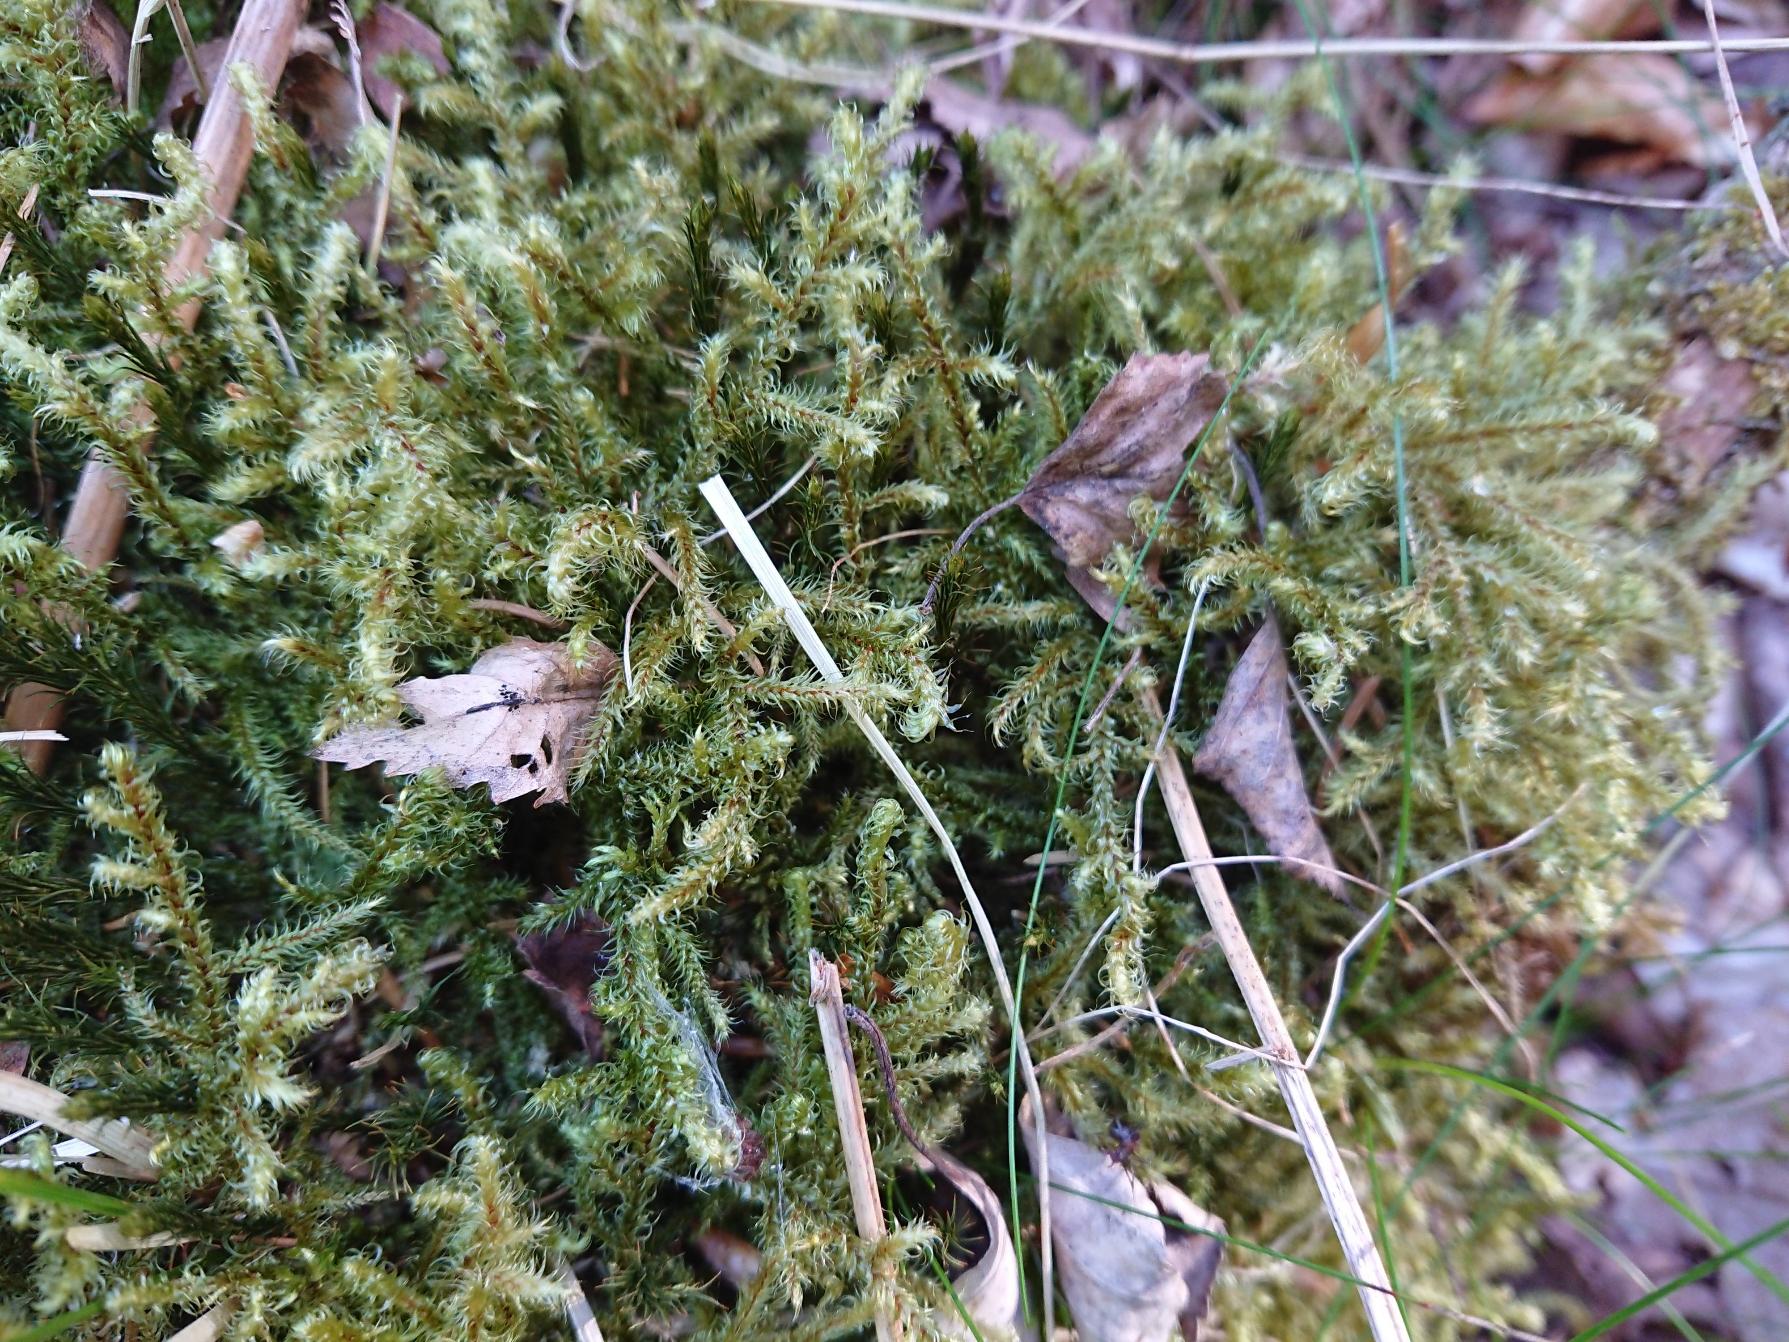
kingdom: Plantae
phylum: Bryophyta
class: Bryopsida
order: Hypnales
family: Hylocomiaceae
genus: Rhytidiadelphus
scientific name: Rhytidiadelphus loreus
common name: Ulvefod-kransemos
